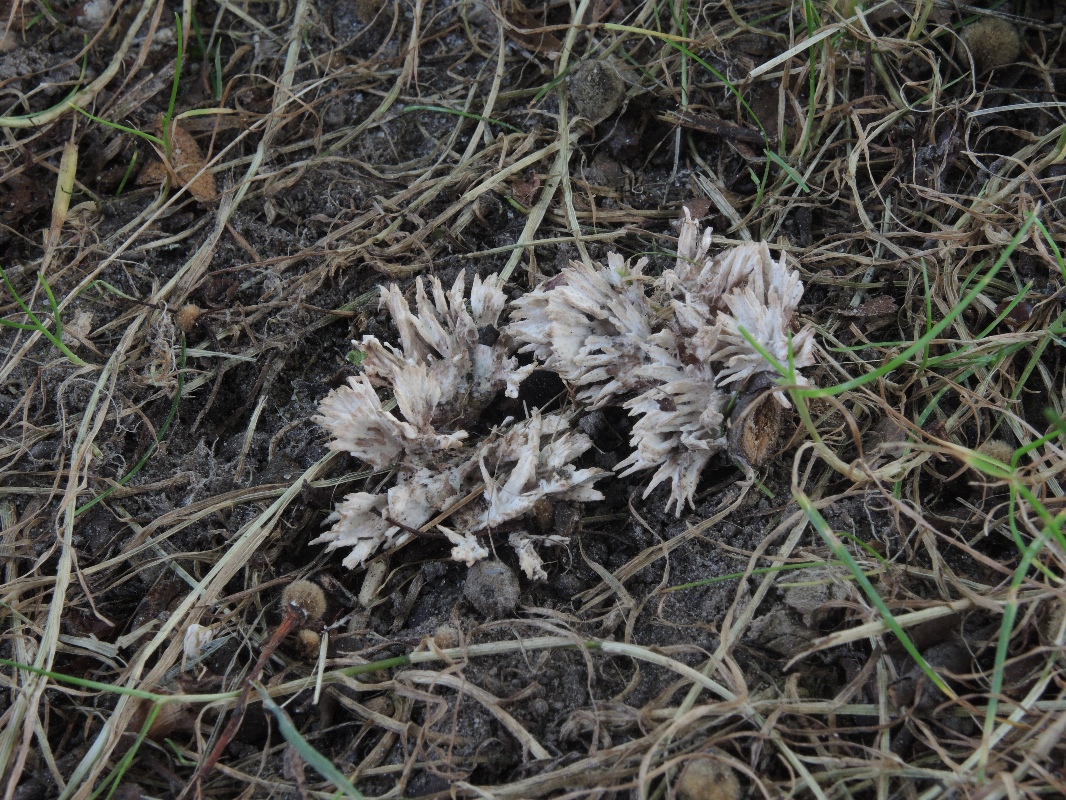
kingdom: Fungi
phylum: Basidiomycota
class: Agaricomycetes
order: Thelephorales
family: Thelephoraceae
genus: Thelephora
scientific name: Thelephora anthocephala
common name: busk-frynsesvamp
